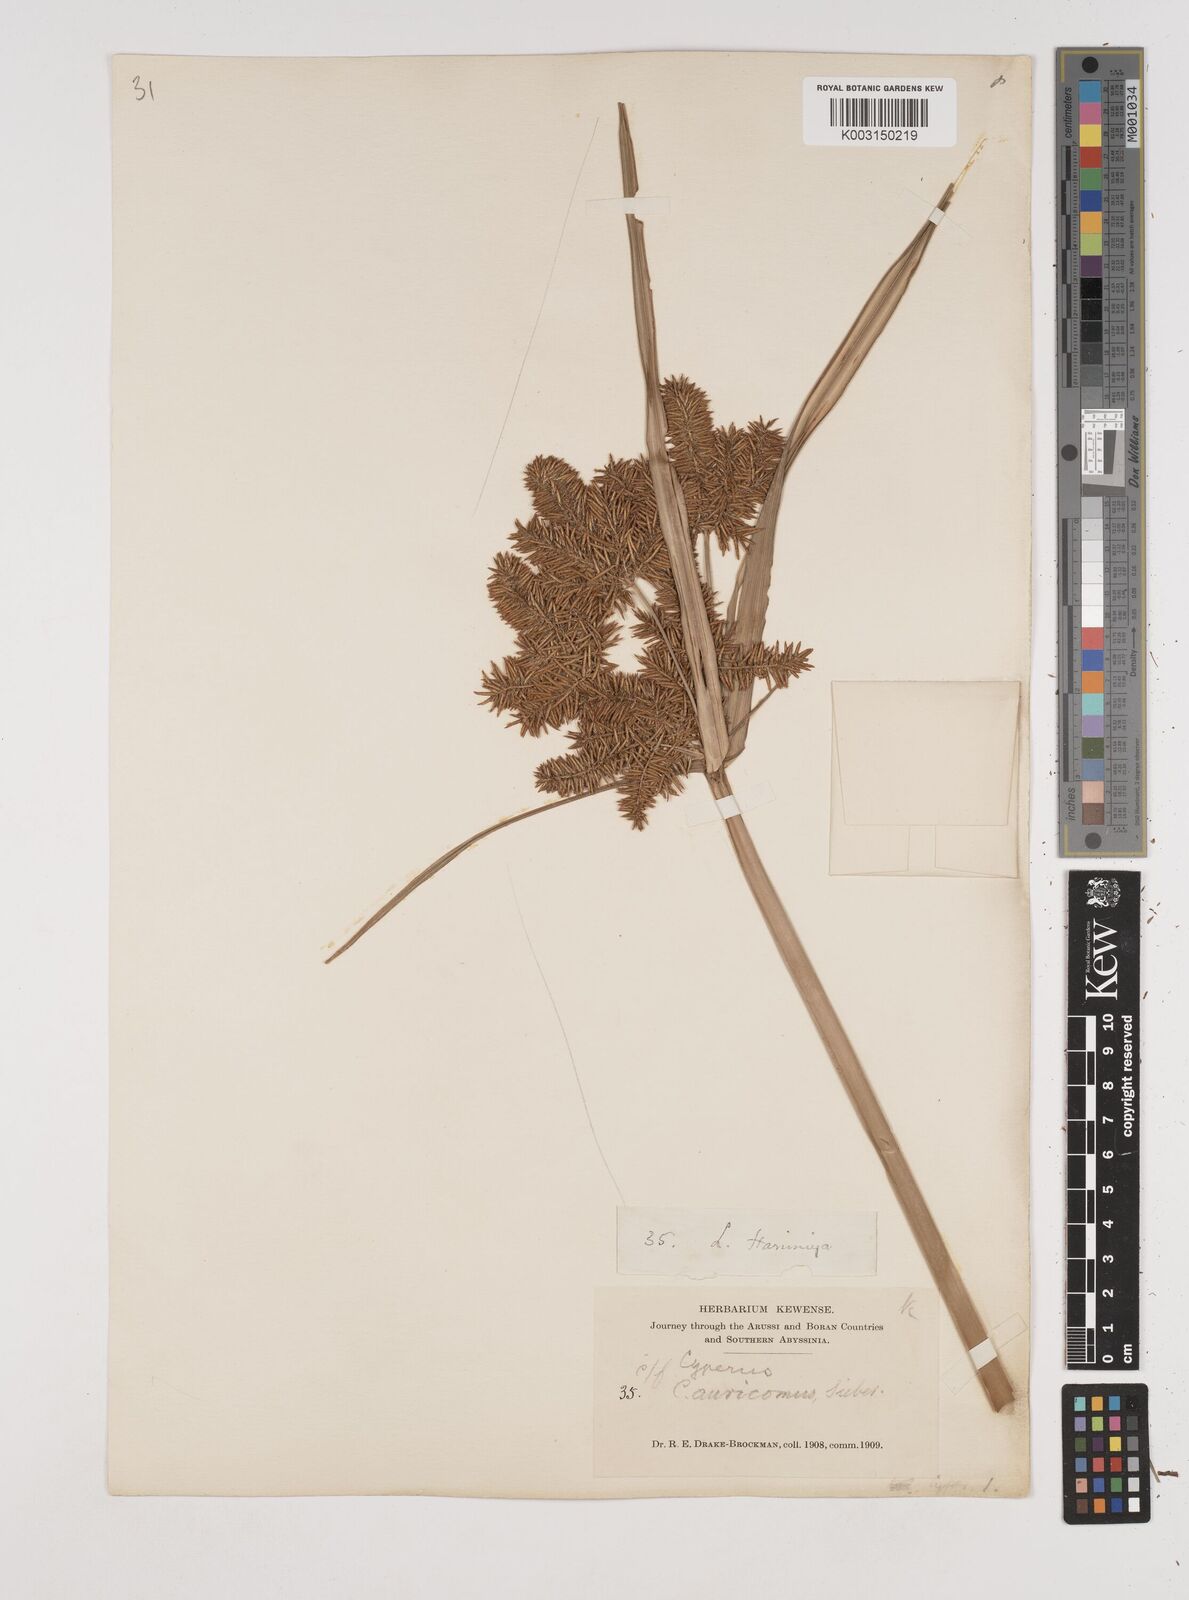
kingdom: Plantae
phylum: Tracheophyta
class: Liliopsida
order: Poales
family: Cyperaceae
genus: Cyperus
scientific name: Cyperus digitatus
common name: Finger flatsedge
